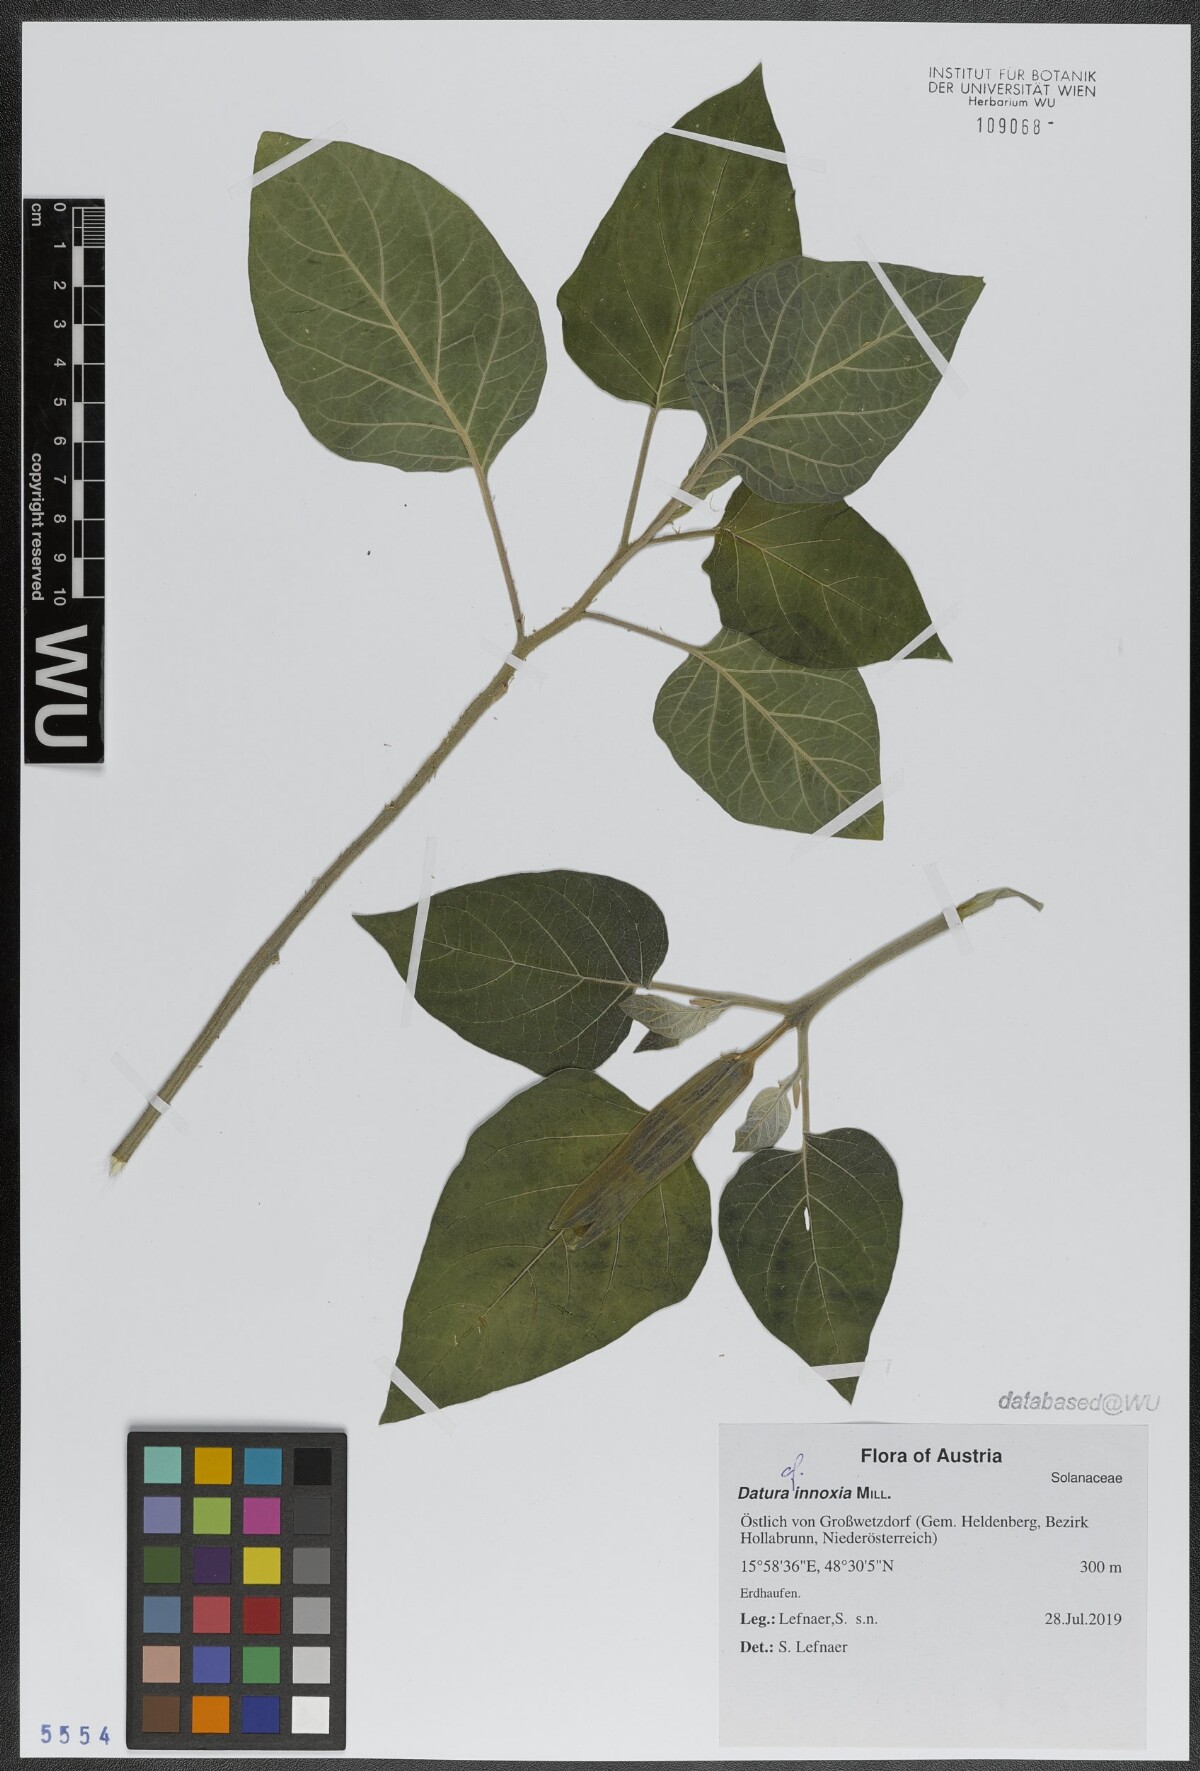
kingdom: Plantae
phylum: Tracheophyta
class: Magnoliopsida
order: Solanales
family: Solanaceae
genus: Datura
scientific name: Datura innoxia
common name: Downy thorn-apple
